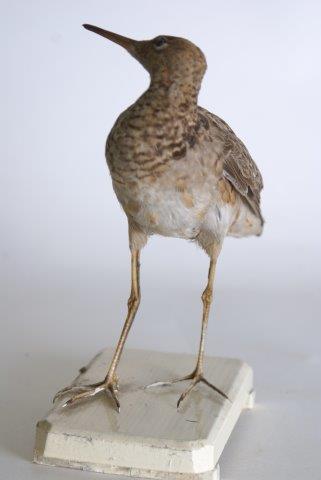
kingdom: Animalia
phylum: Chordata
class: Aves
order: Charadriiformes
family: Scolopacidae
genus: Calidris
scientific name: Calidris pugnax
